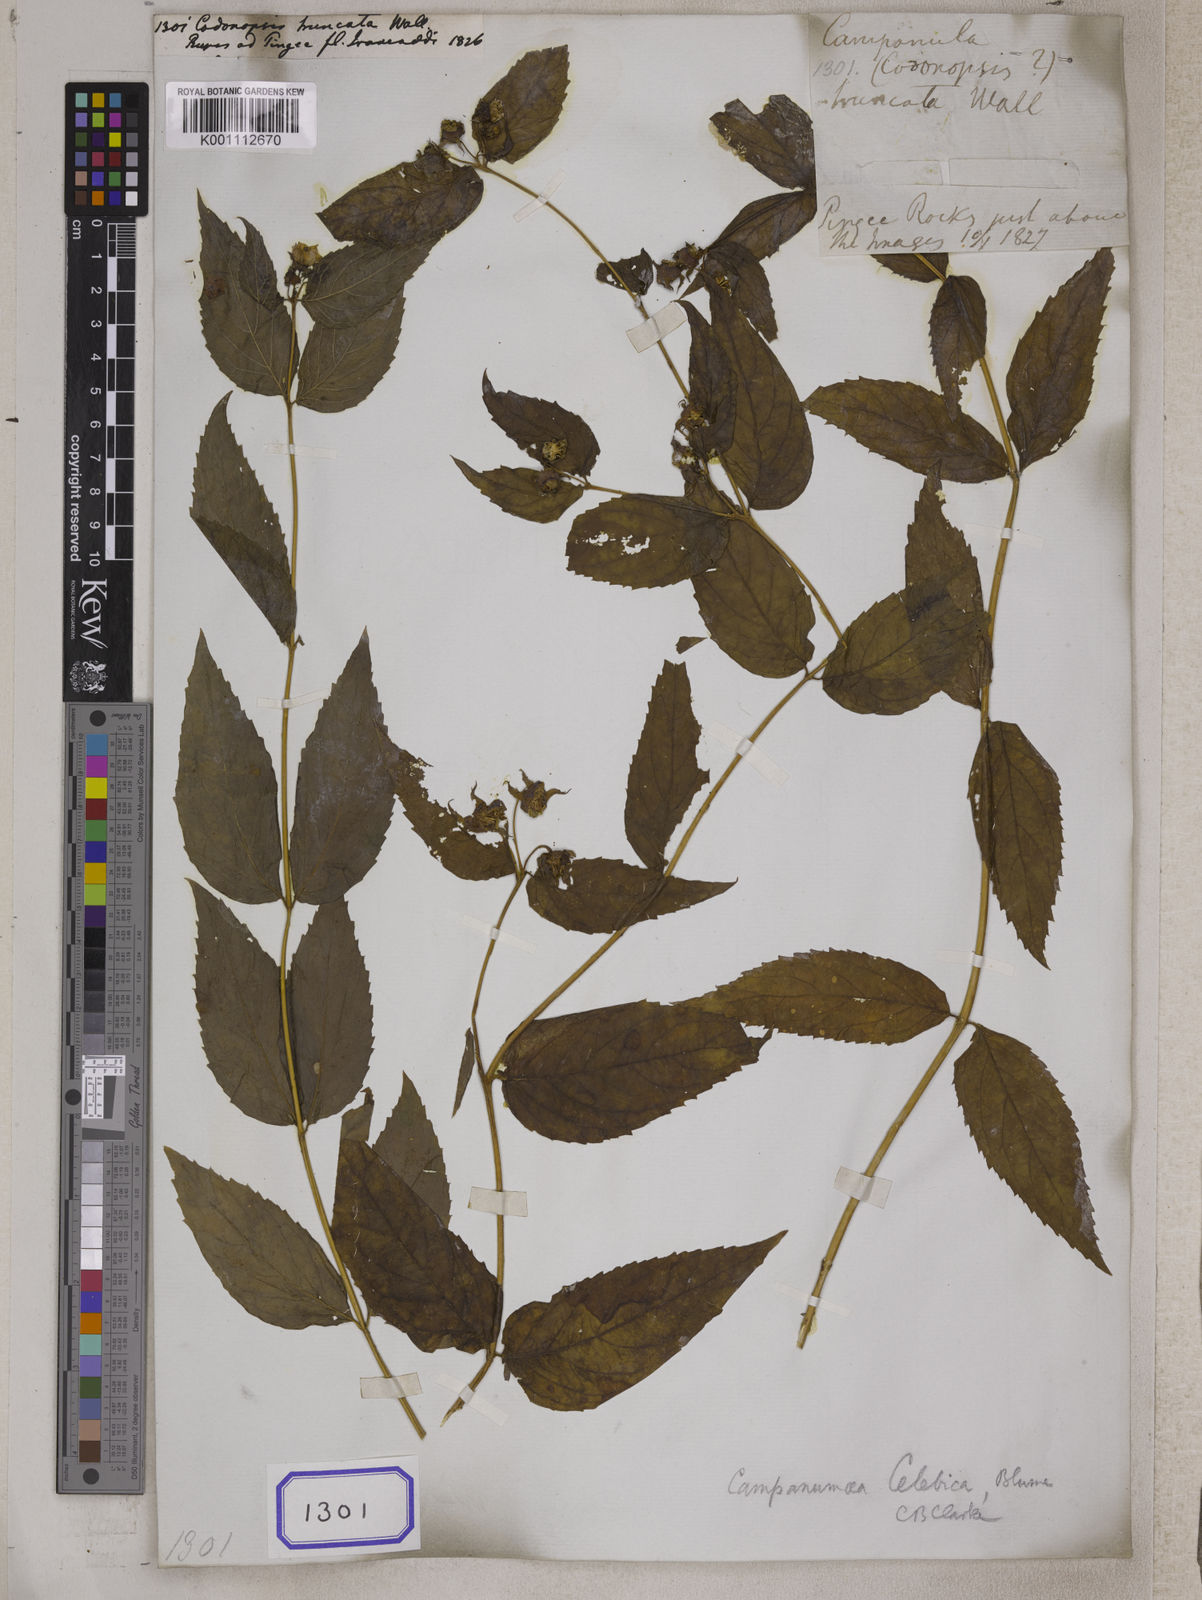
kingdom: Plantae
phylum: Tracheophyta
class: Magnoliopsida
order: Asterales
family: Campanulaceae
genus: Codonopsis
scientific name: Codonopsis
